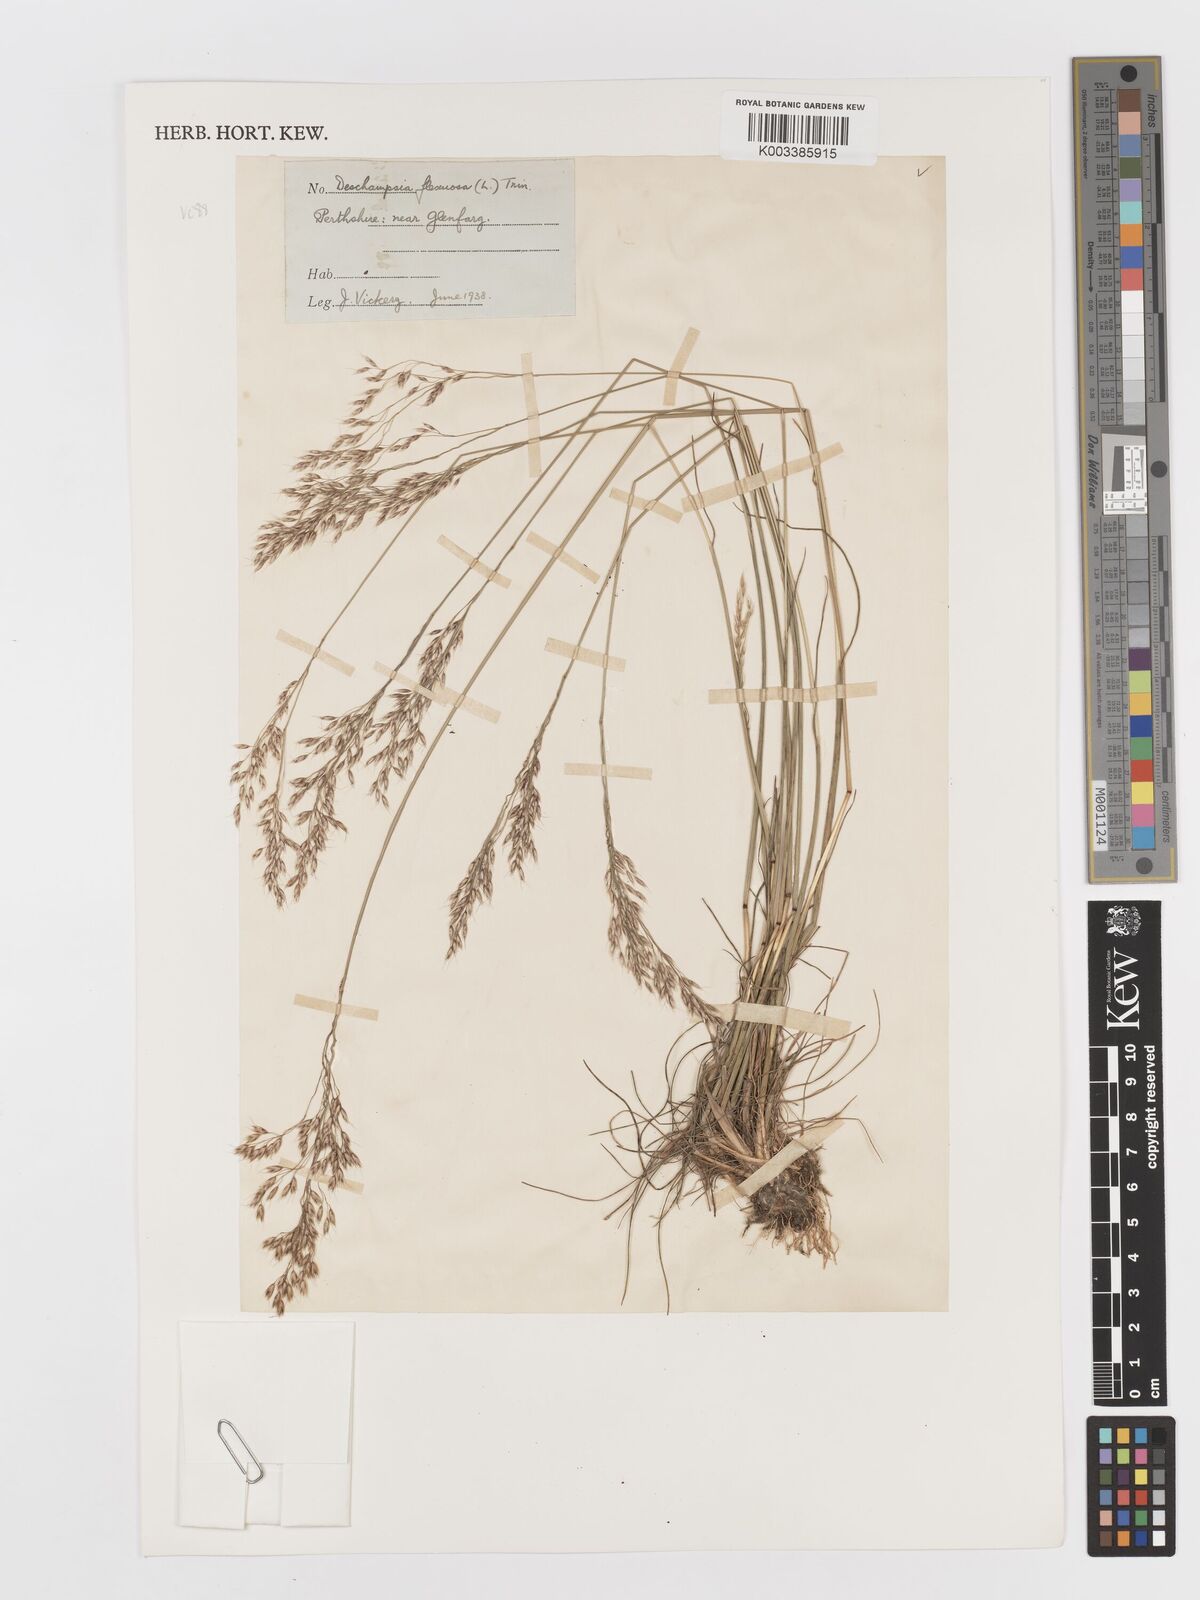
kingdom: Plantae
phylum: Tracheophyta
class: Liliopsida
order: Poales
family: Poaceae
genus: Avenella
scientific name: Avenella flexuosa
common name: Wavy hairgrass
